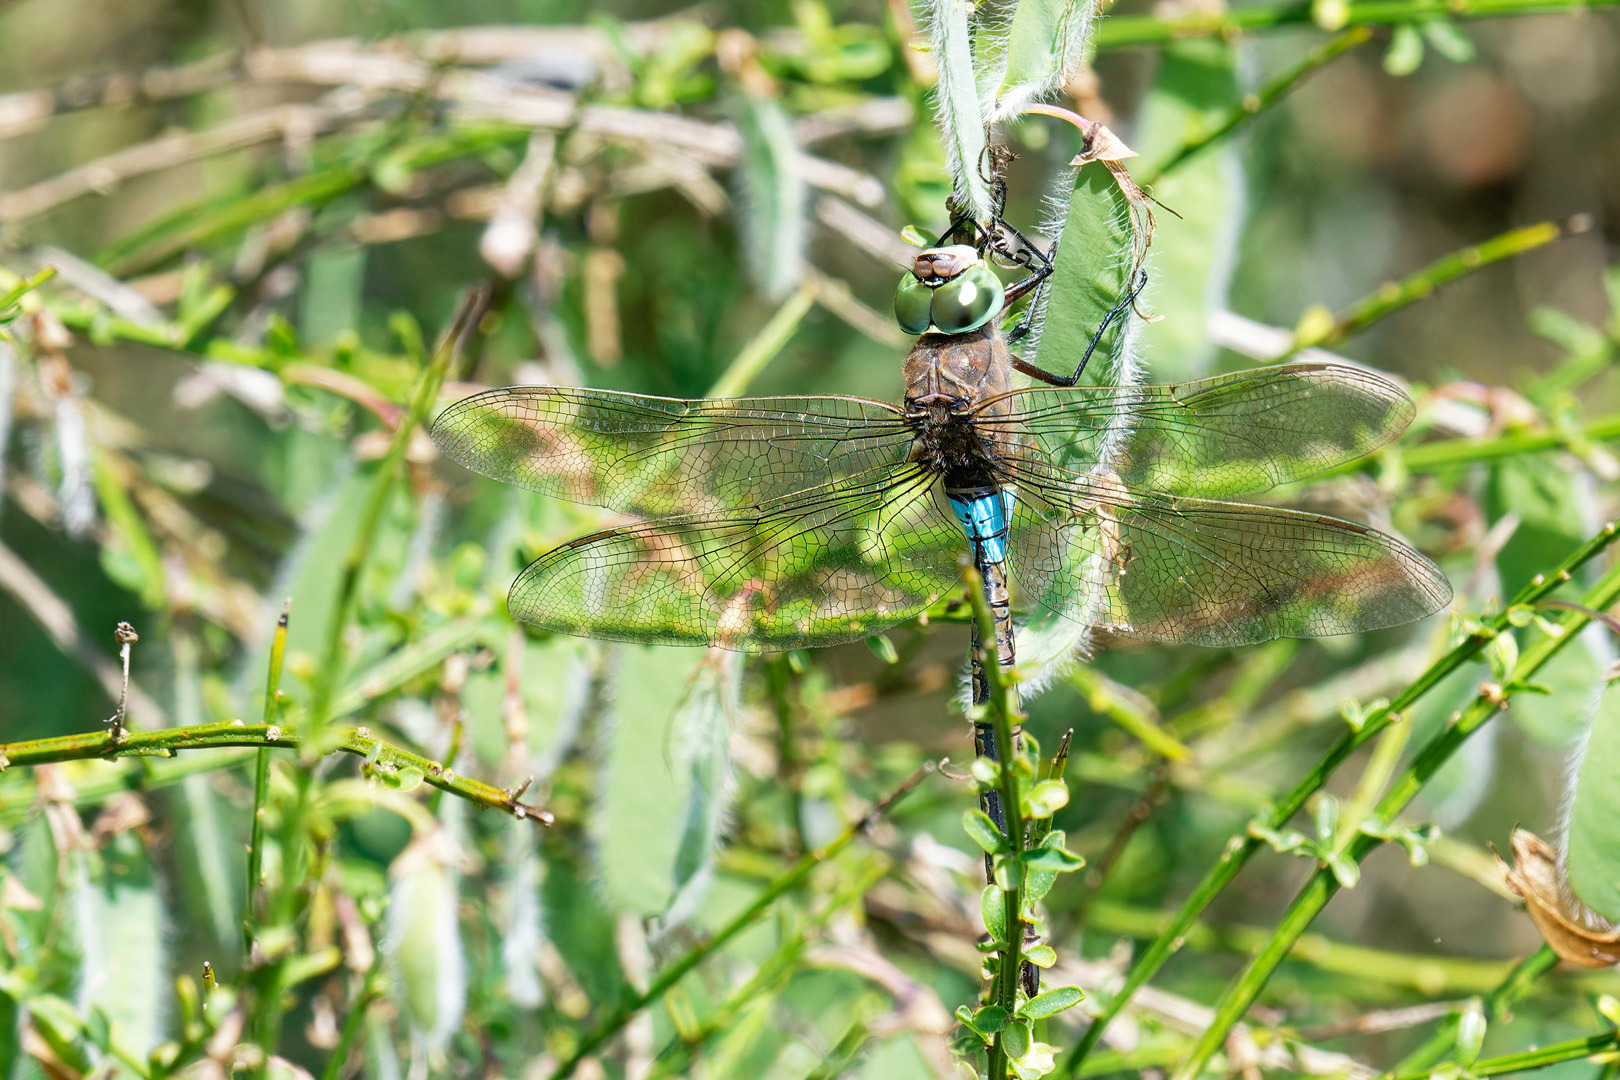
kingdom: Animalia
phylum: Arthropoda
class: Insecta
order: Odonata
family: Aeshnidae
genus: Anax
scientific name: Anax parthenope
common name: Lille kejserguldsmed
